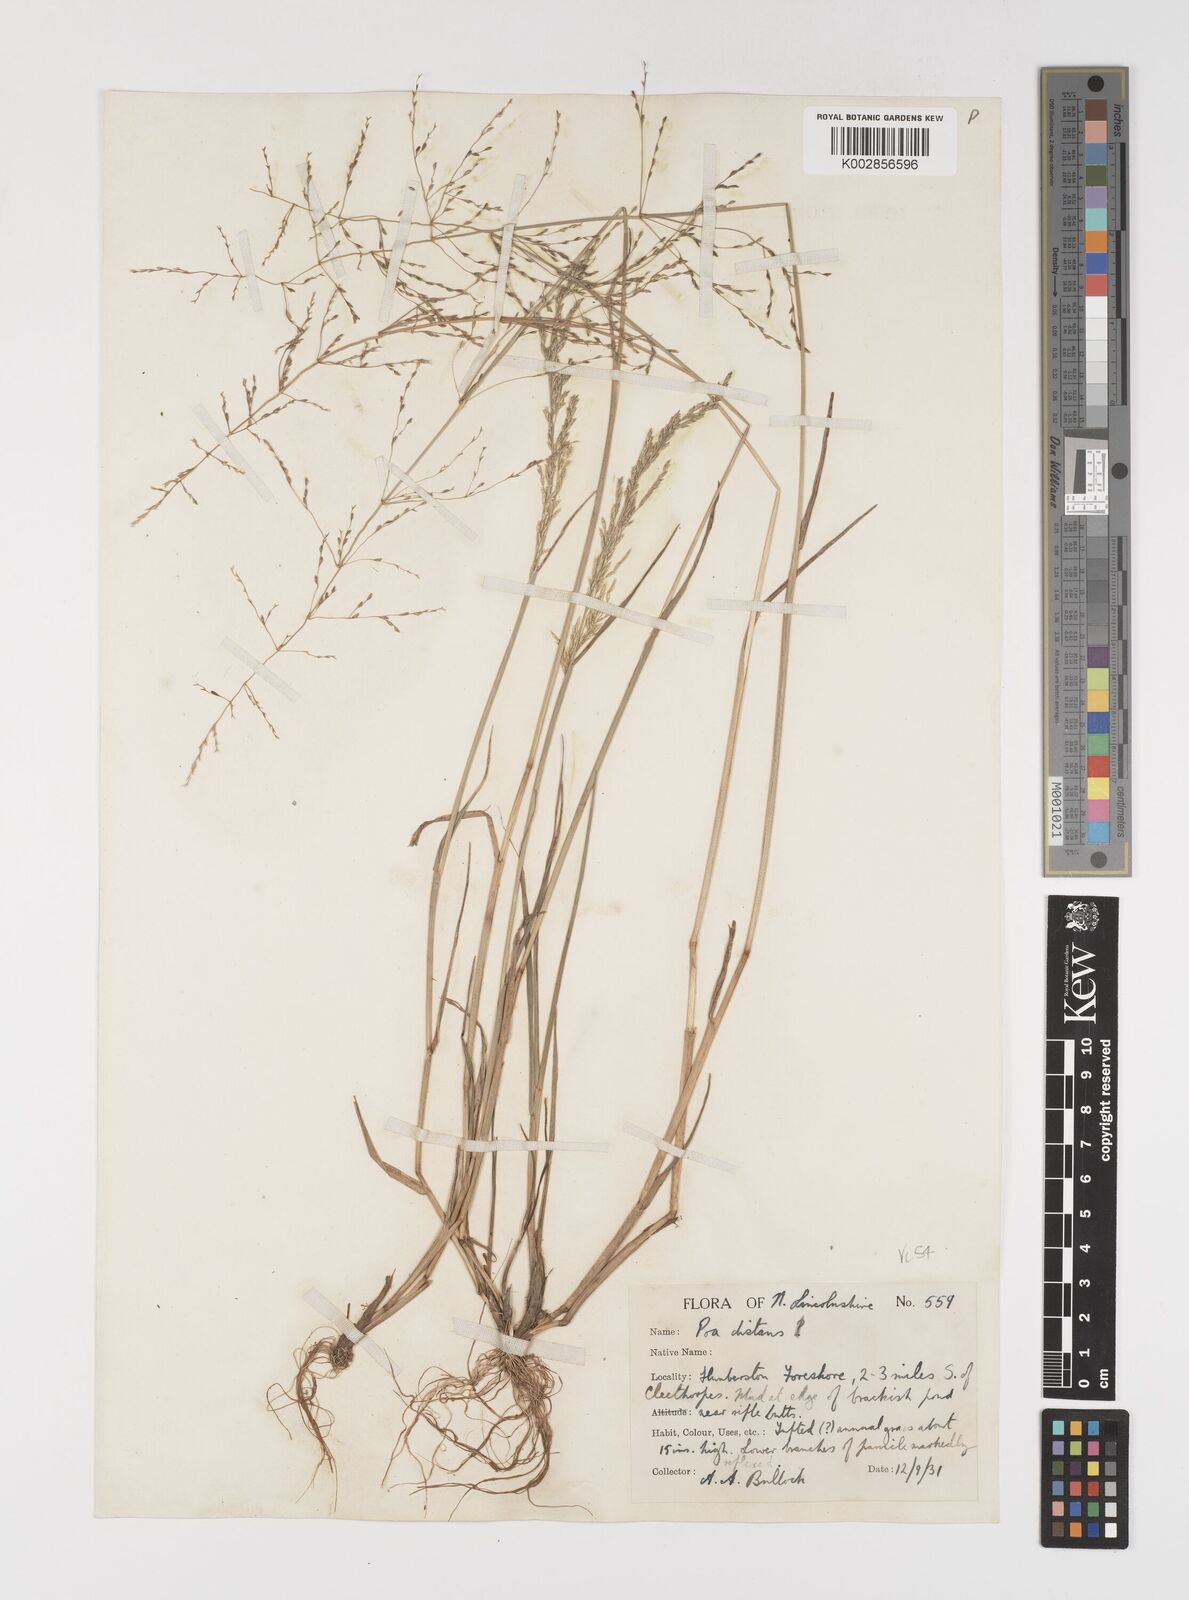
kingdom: Plantae
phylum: Tracheophyta
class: Liliopsida
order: Poales
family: Poaceae
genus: Puccinellia
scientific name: Puccinellia distans
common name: Weeping alkaligrass
